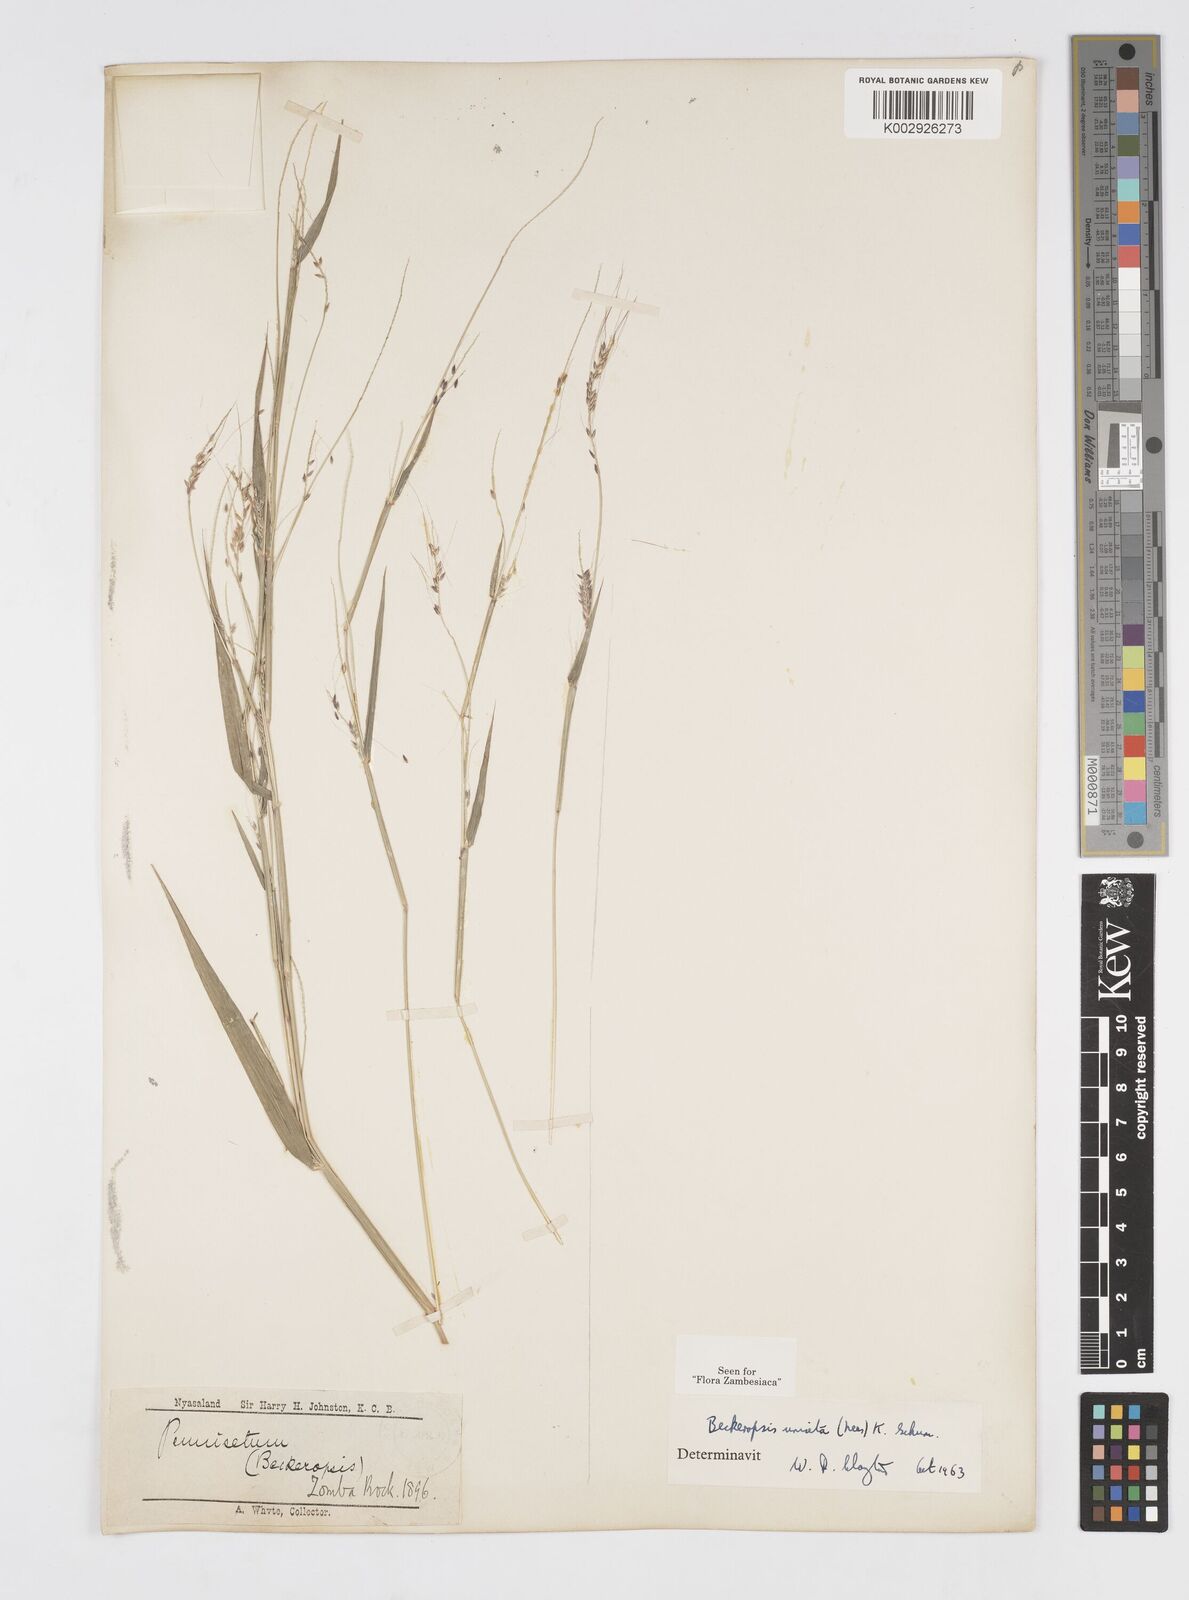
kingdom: Plantae
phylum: Tracheophyta
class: Liliopsida
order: Poales
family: Poaceae
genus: Cenchrus
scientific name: Cenchrus unisetus
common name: Natal grass
